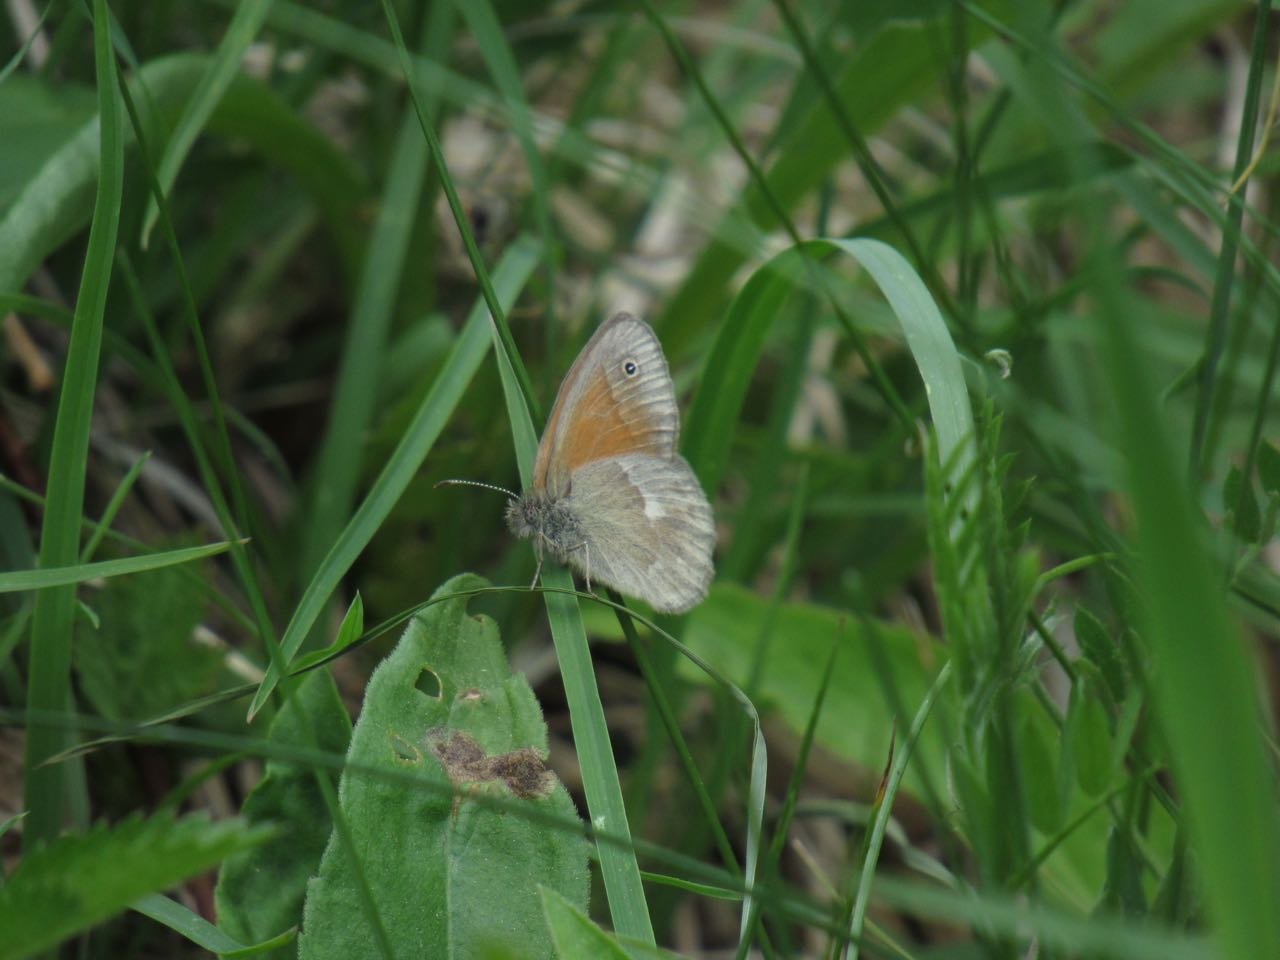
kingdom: Animalia
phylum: Arthropoda
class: Insecta
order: Lepidoptera
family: Nymphalidae
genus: Coenonympha
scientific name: Coenonympha tullia
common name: Large Heath
